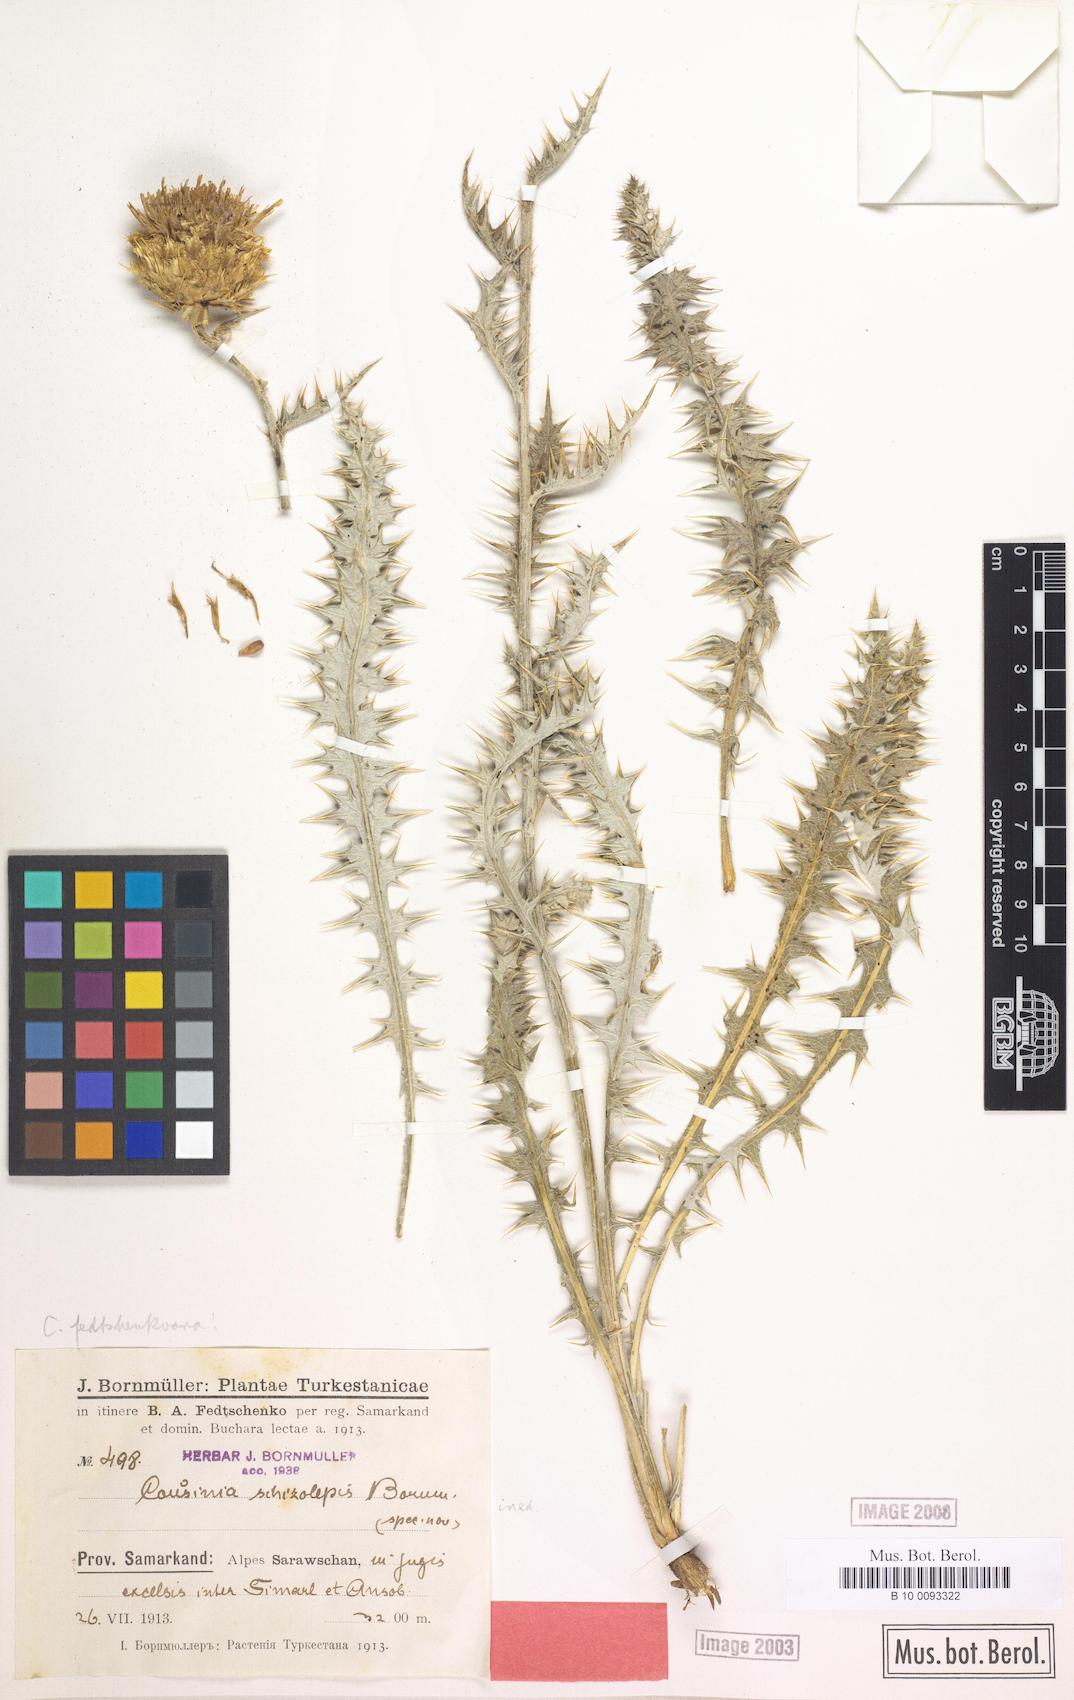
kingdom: Plantae
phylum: Tracheophyta
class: Magnoliopsida
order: Asterales
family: Asteraceae
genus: Arctium
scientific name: Arctium fedtschenkoanum
